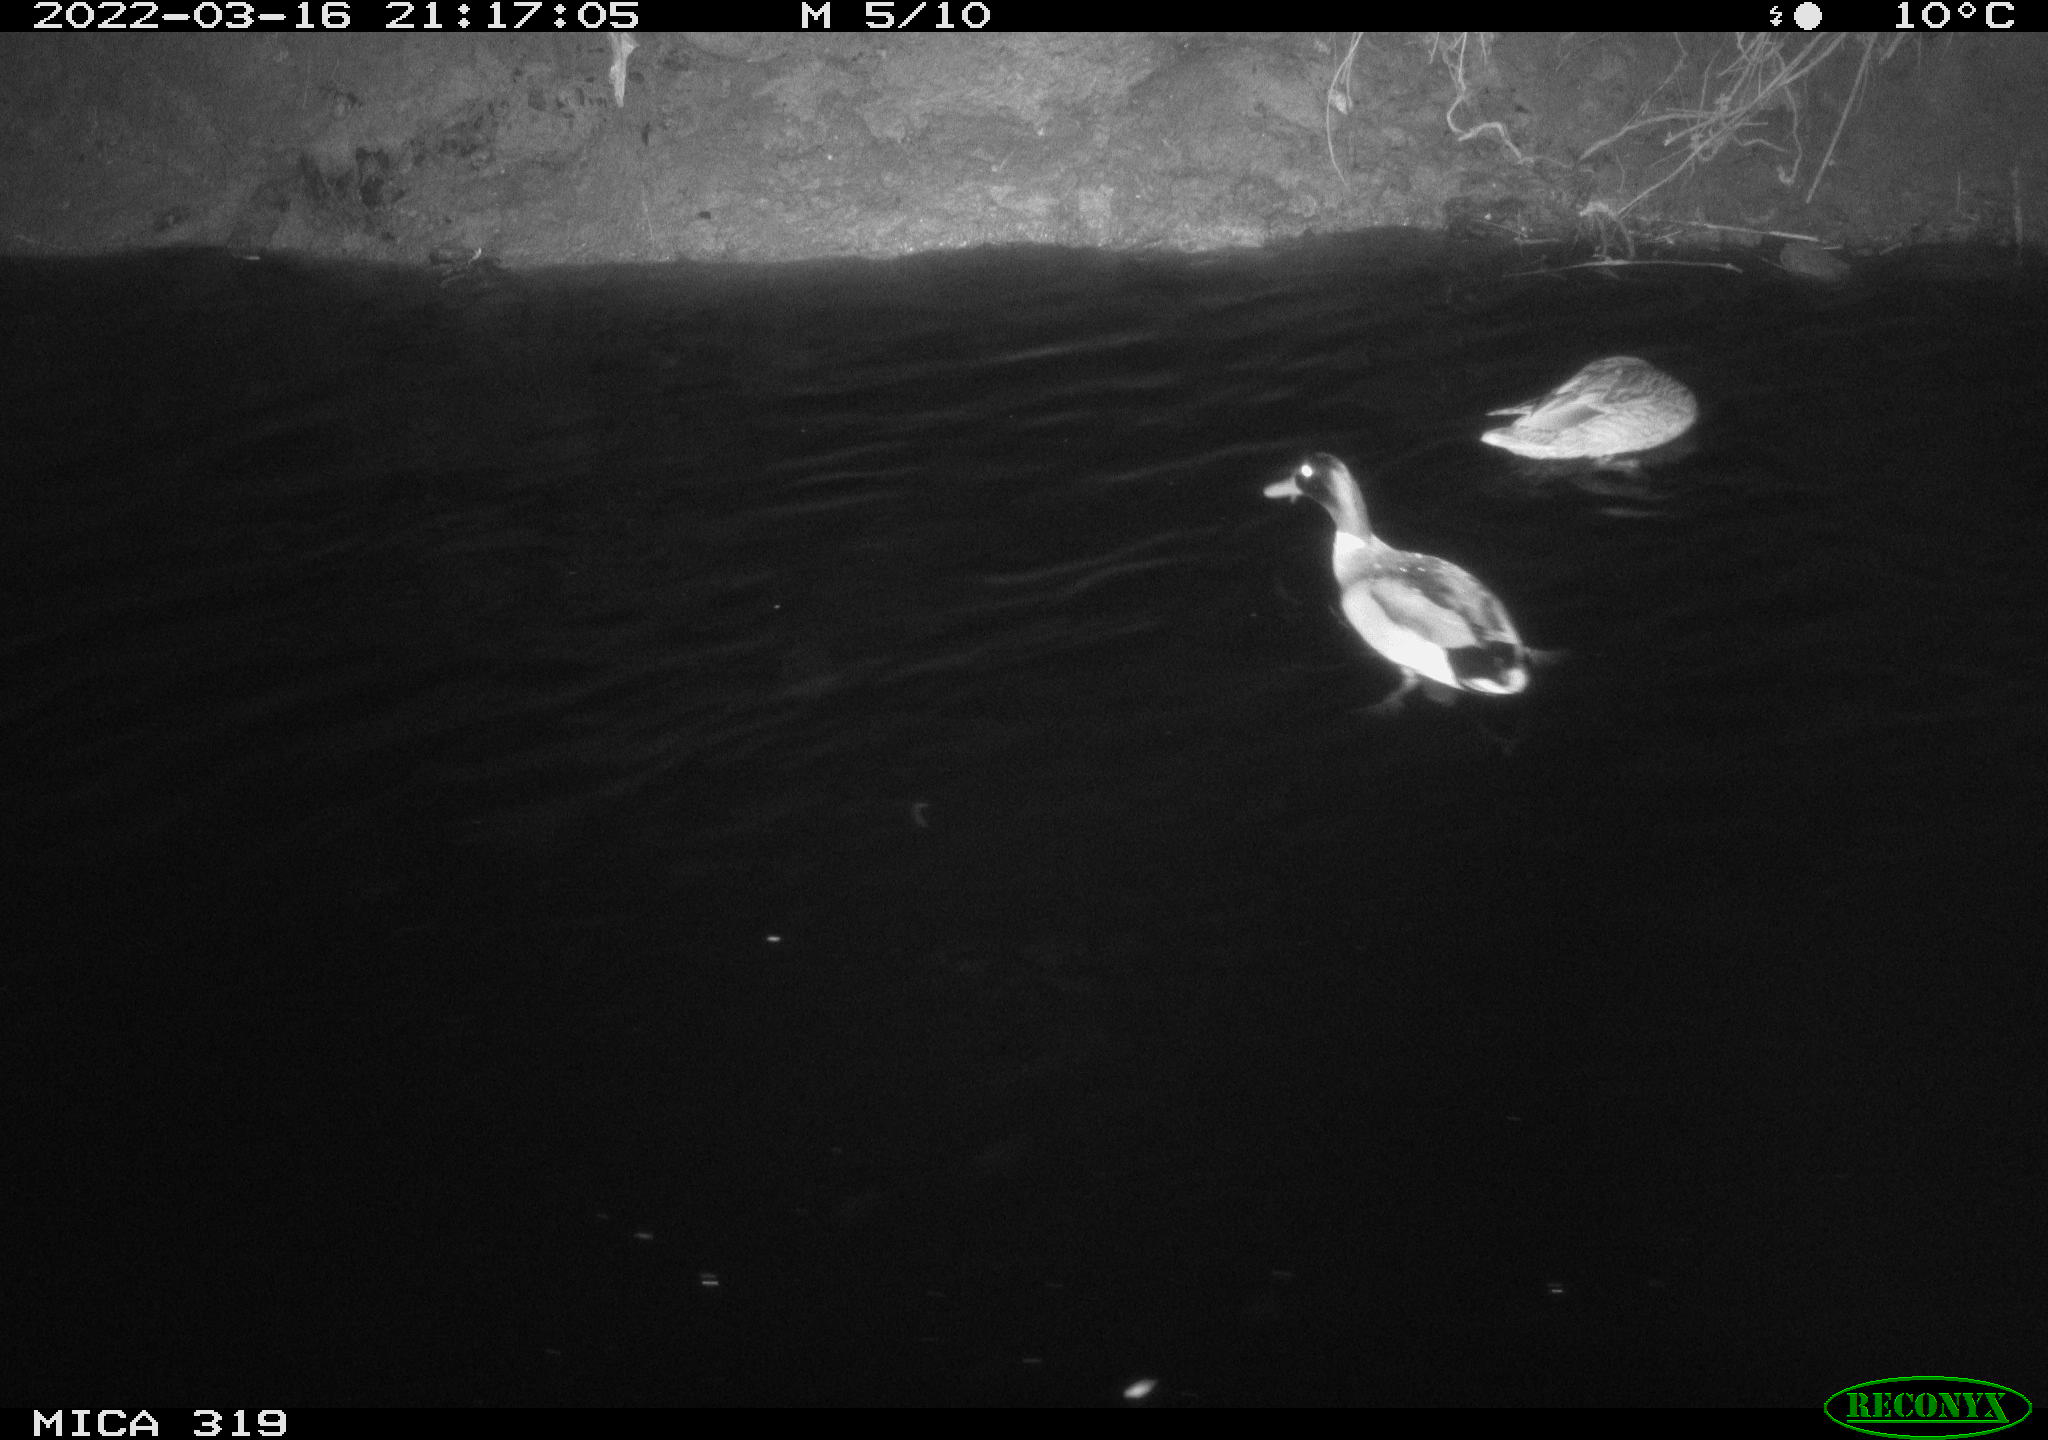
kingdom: Animalia
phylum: Chordata
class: Aves
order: Anseriformes
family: Anatidae
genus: Anas
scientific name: Anas platyrhynchos
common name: Mallard
